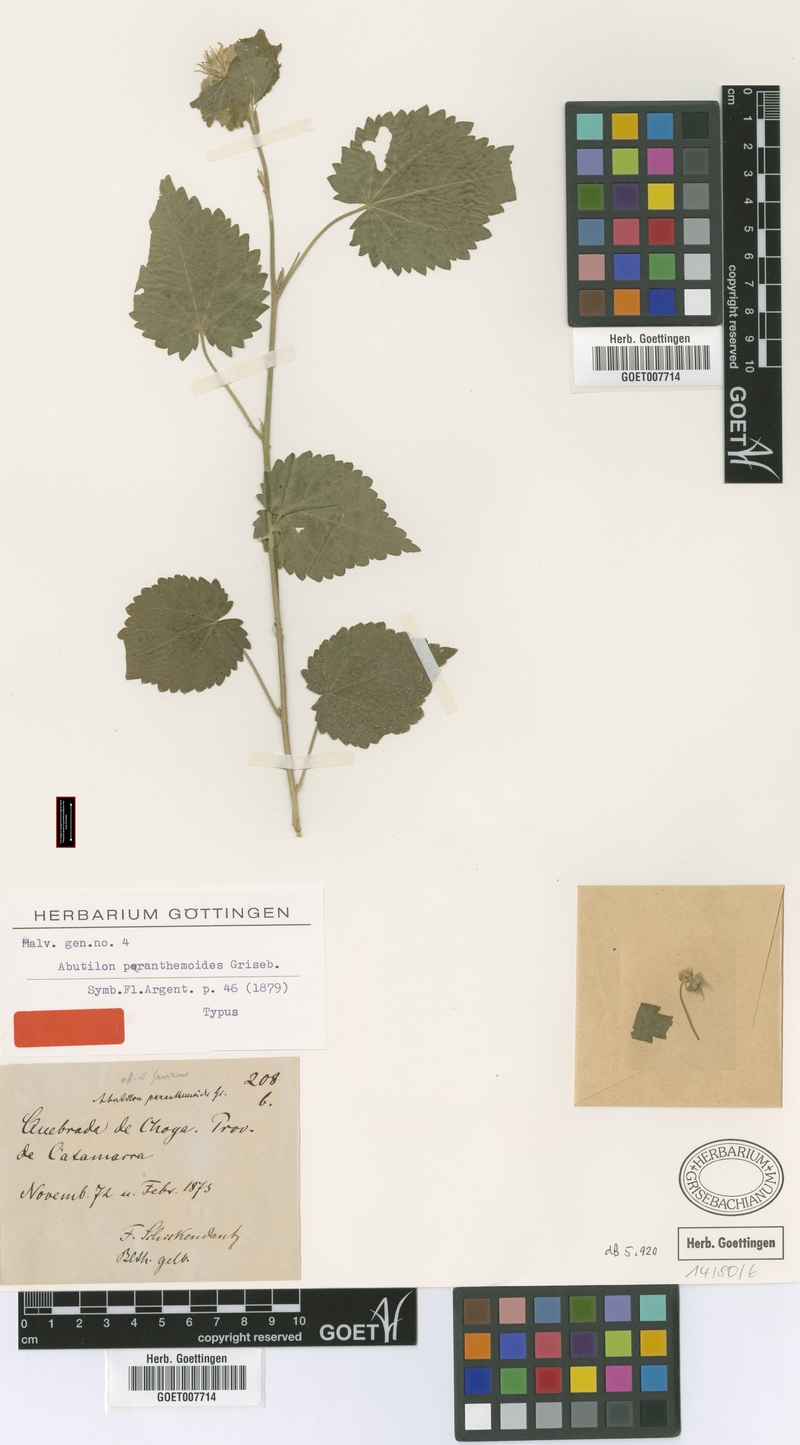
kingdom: Plantae
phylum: Tracheophyta
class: Magnoliopsida
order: Malvales
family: Malvaceae
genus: Pseudabutilon
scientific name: Pseudabutilon virgatum
